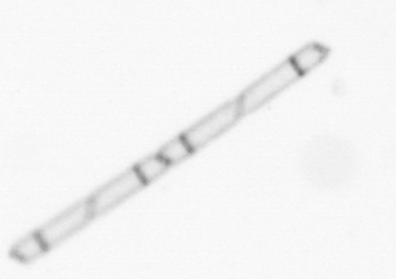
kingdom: Chromista
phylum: Ochrophyta
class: Bacillariophyceae
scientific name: Bacillariophyceae
